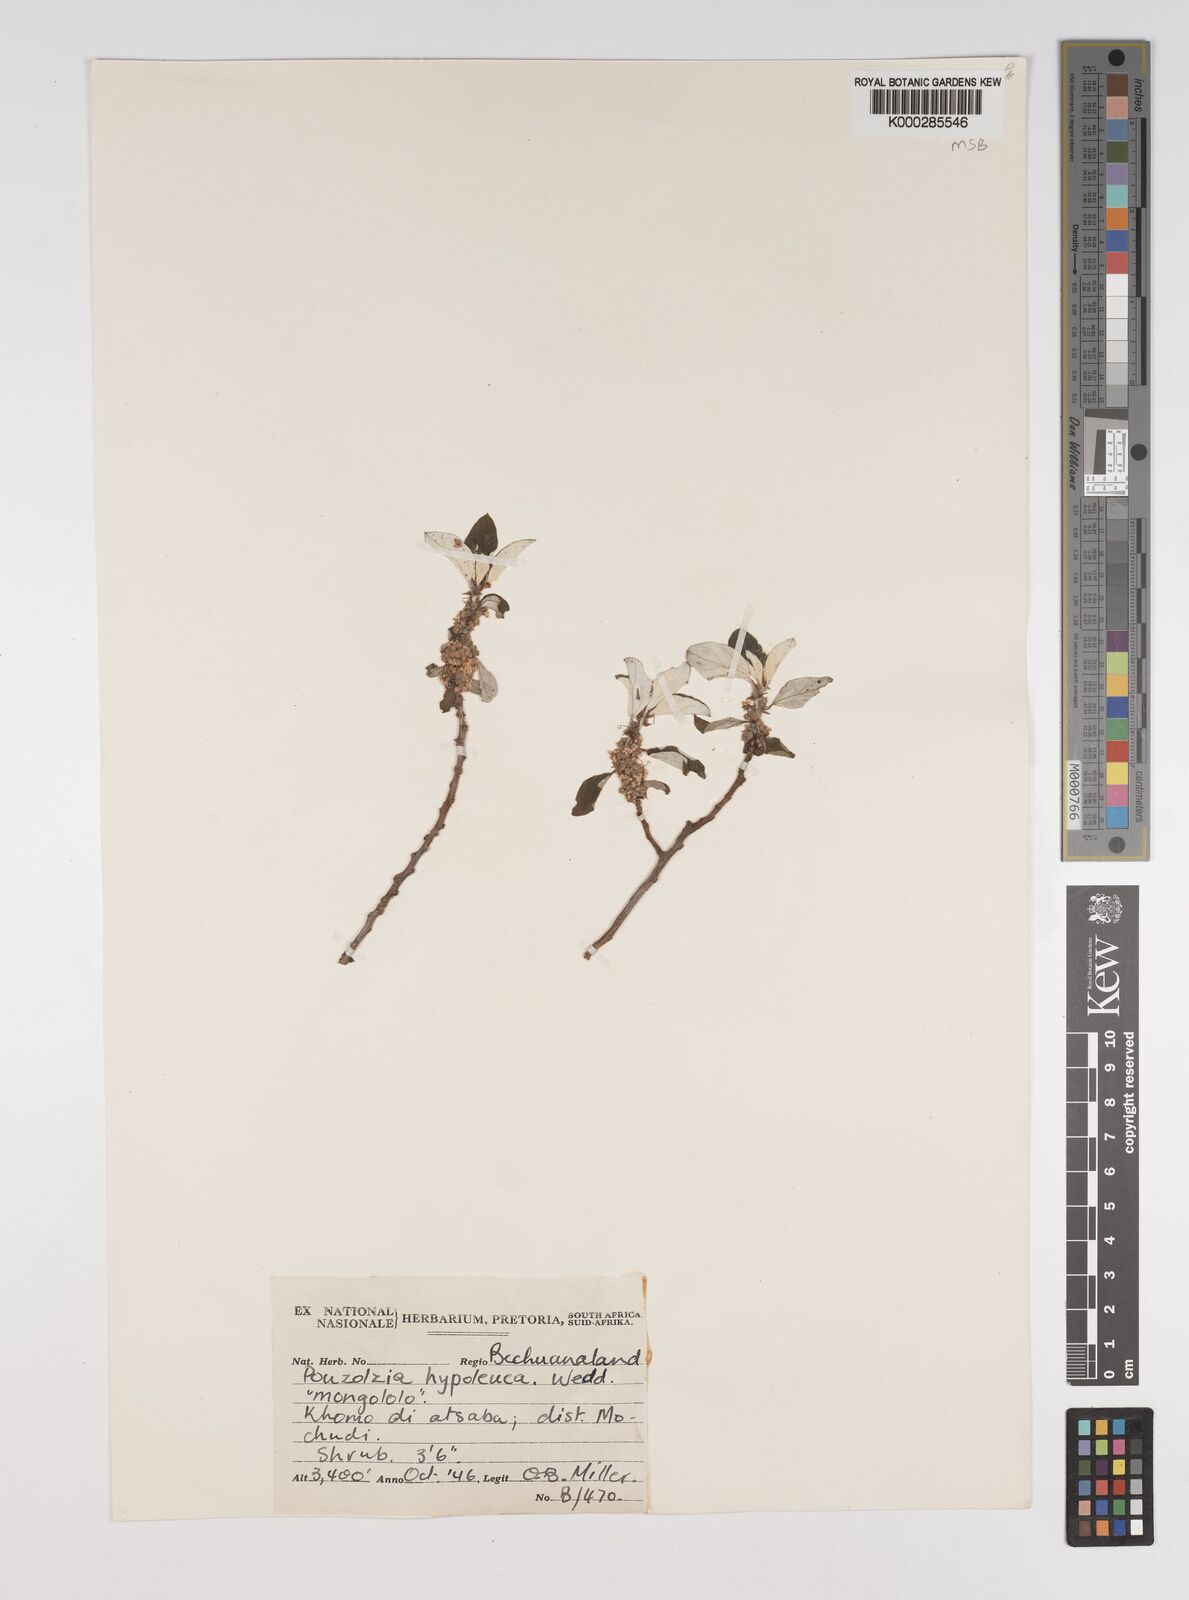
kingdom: Plantae
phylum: Tracheophyta
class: Magnoliopsida
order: Rosales
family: Urticaceae
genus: Pouzolzia
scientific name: Pouzolzia mixta
